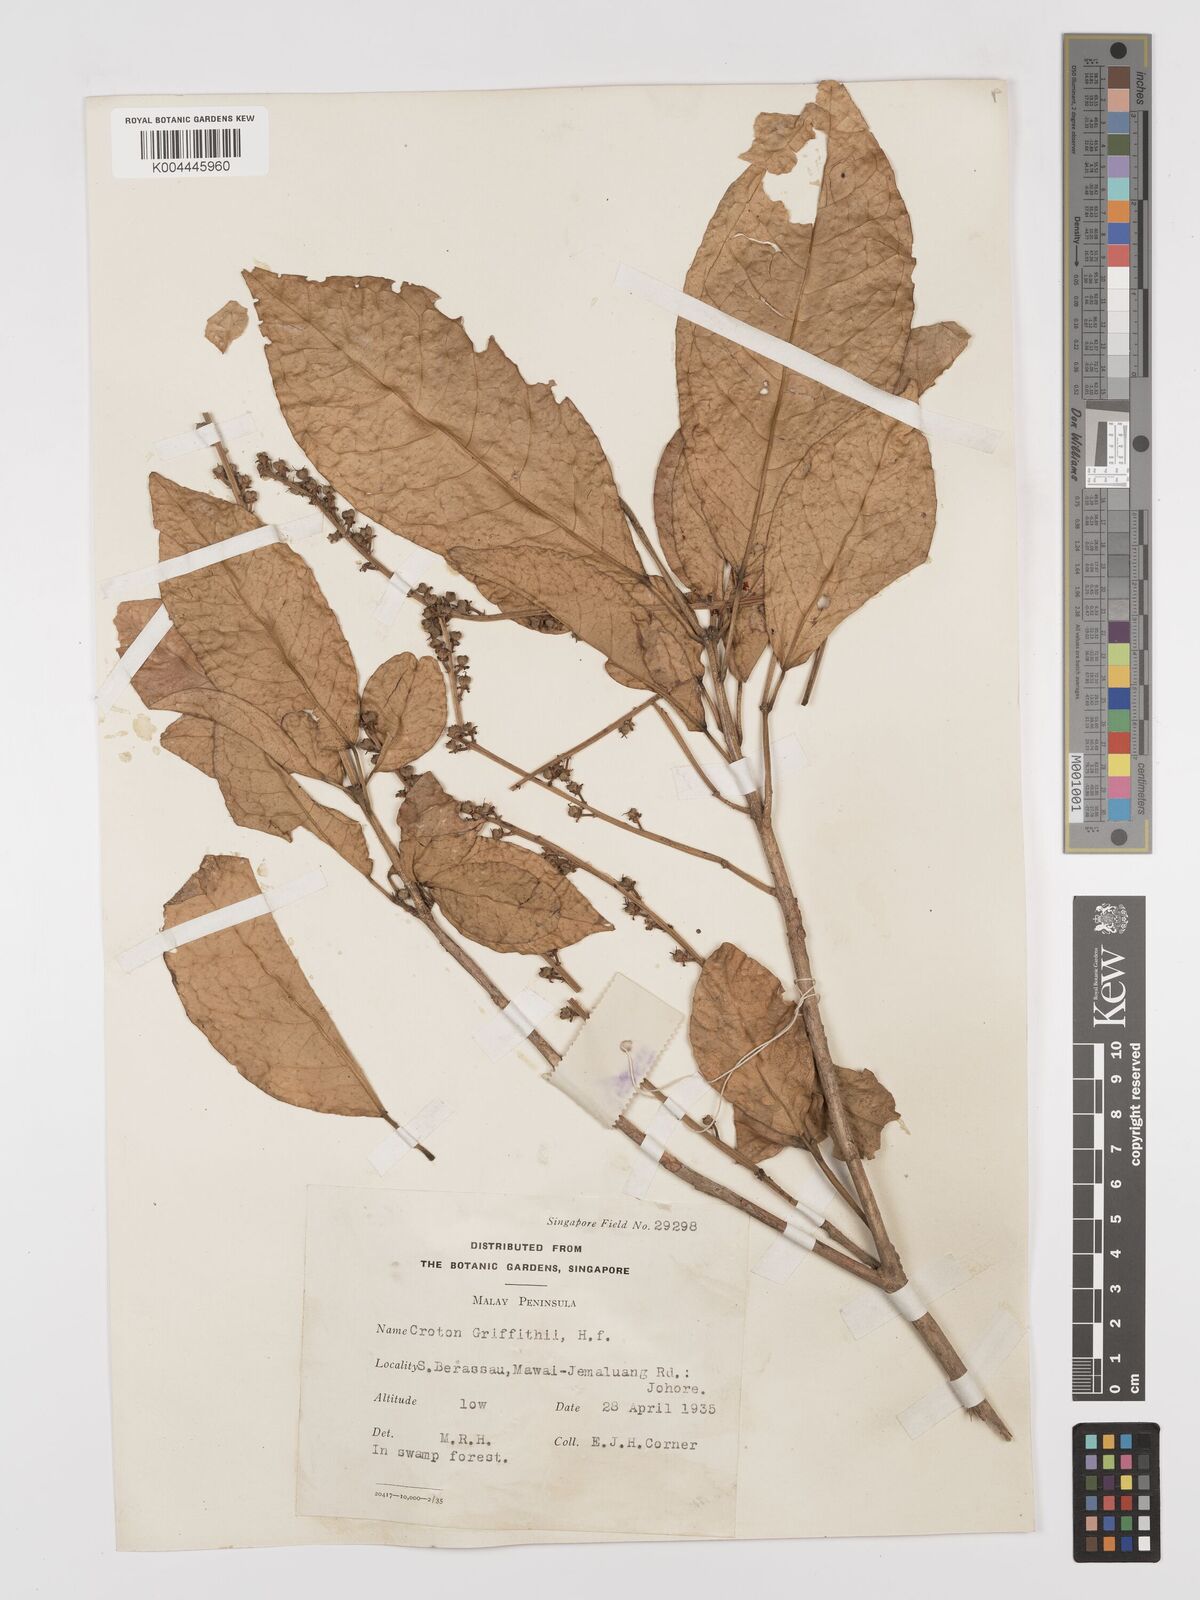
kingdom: Plantae
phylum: Tracheophyta
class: Magnoliopsida
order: Malpighiales
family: Euphorbiaceae
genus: Croton
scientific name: Croton griffithii
